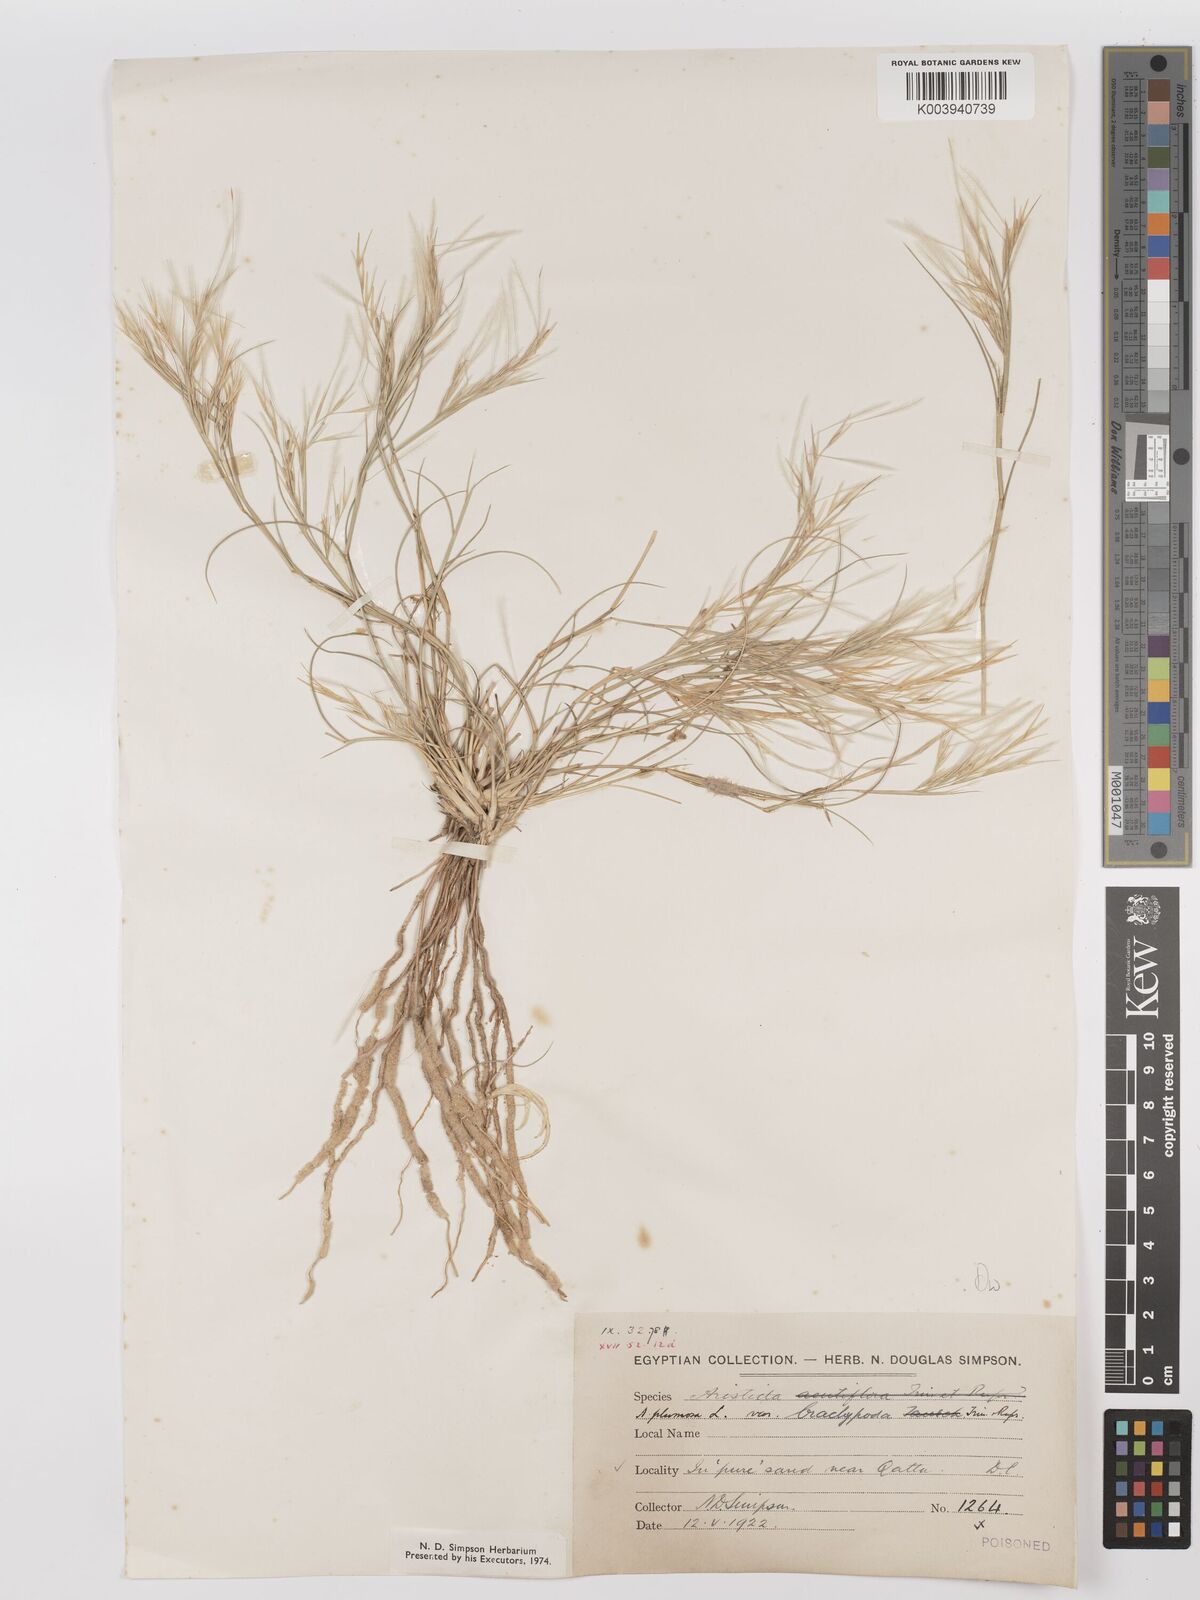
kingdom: Plantae
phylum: Tracheophyta
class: Liliopsida
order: Poales
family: Poaceae
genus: Stipagrostis
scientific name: Stipagrostis plumosa
